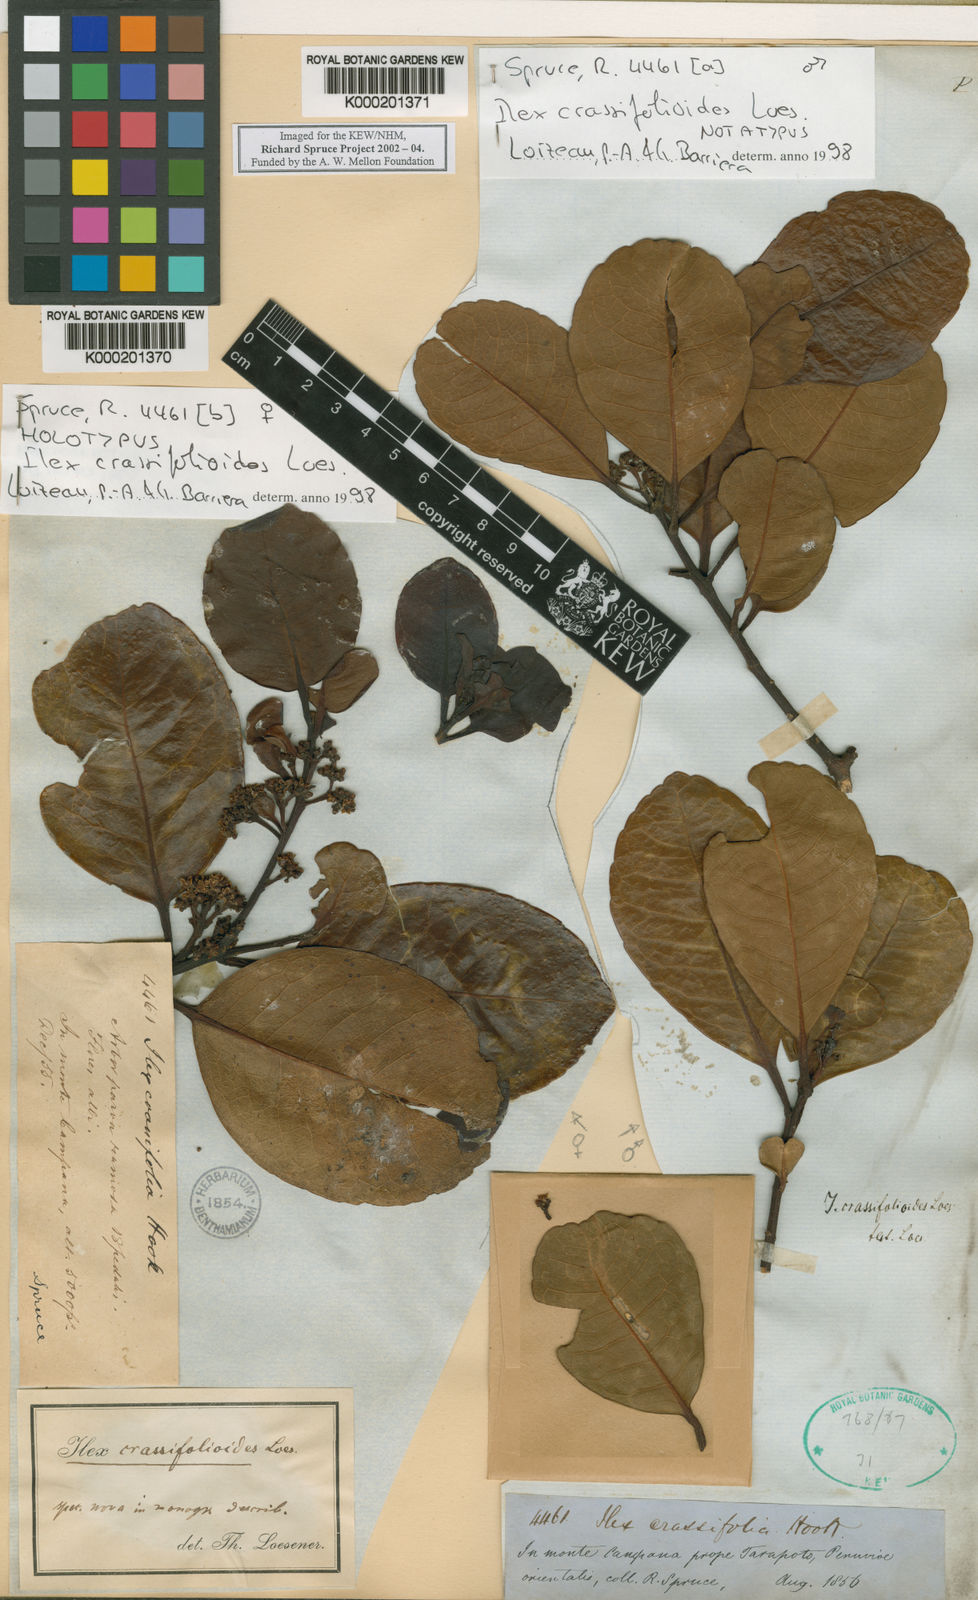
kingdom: Plantae
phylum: Tracheophyta
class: Magnoliopsida
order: Aquifoliales
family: Aquifoliaceae
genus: Ilex
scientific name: Ilex crassifolioides
